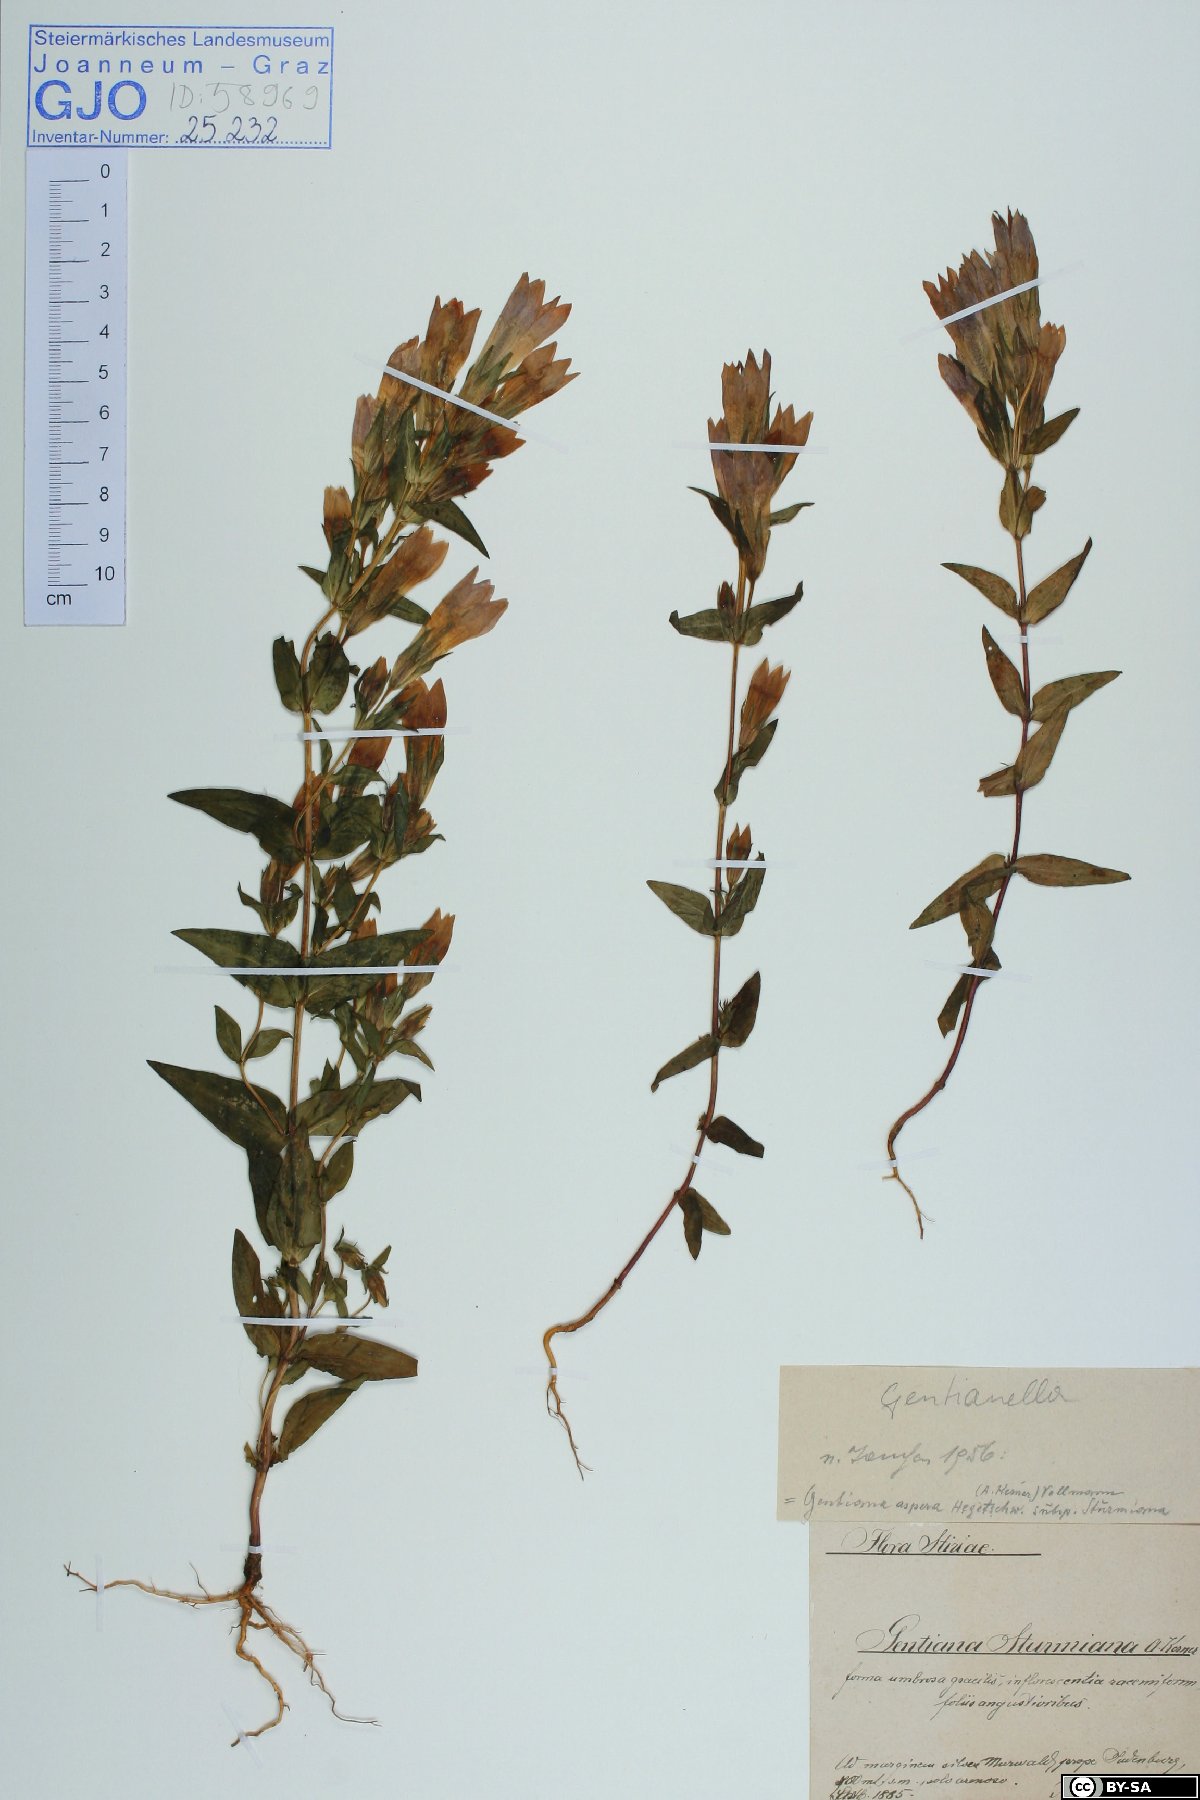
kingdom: Plantae
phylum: Tracheophyta
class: Magnoliopsida
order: Gentianales
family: Gentianaceae
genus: Gentianella
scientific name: Gentianella obtusifolia
